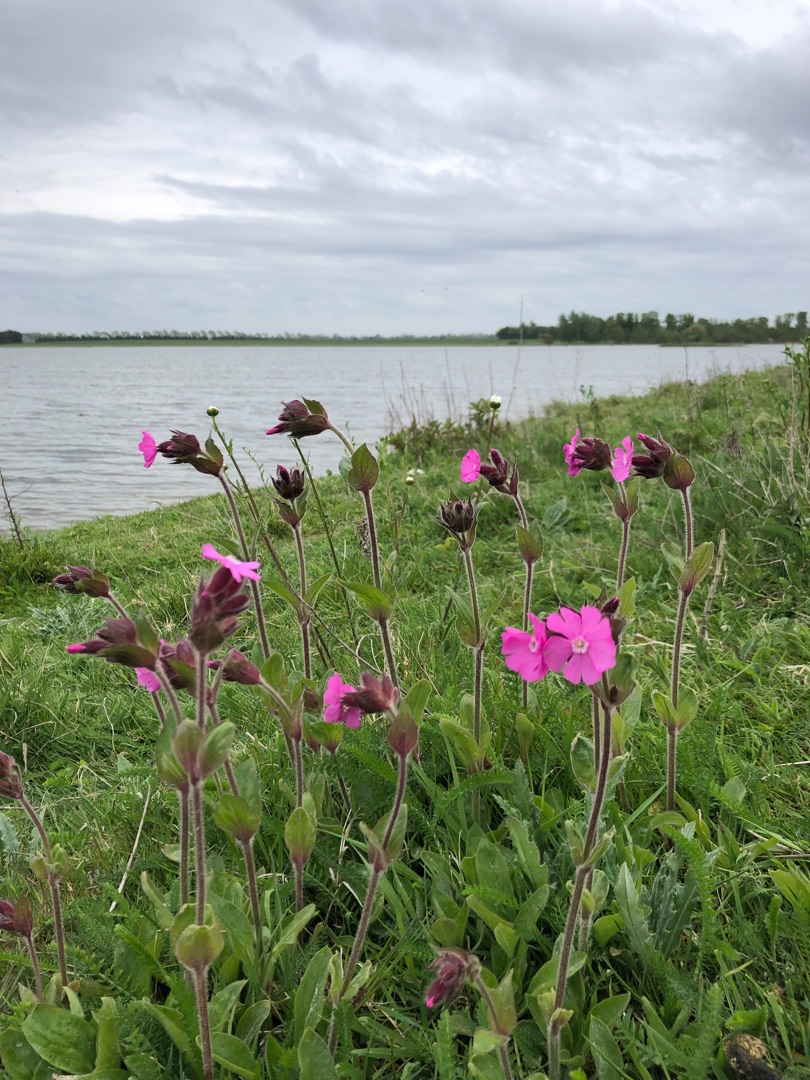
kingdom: Plantae
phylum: Tracheophyta
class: Magnoliopsida
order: Caryophyllales
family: Caryophyllaceae
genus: Silene
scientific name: Silene dioica
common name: Dagpragtstjerne
